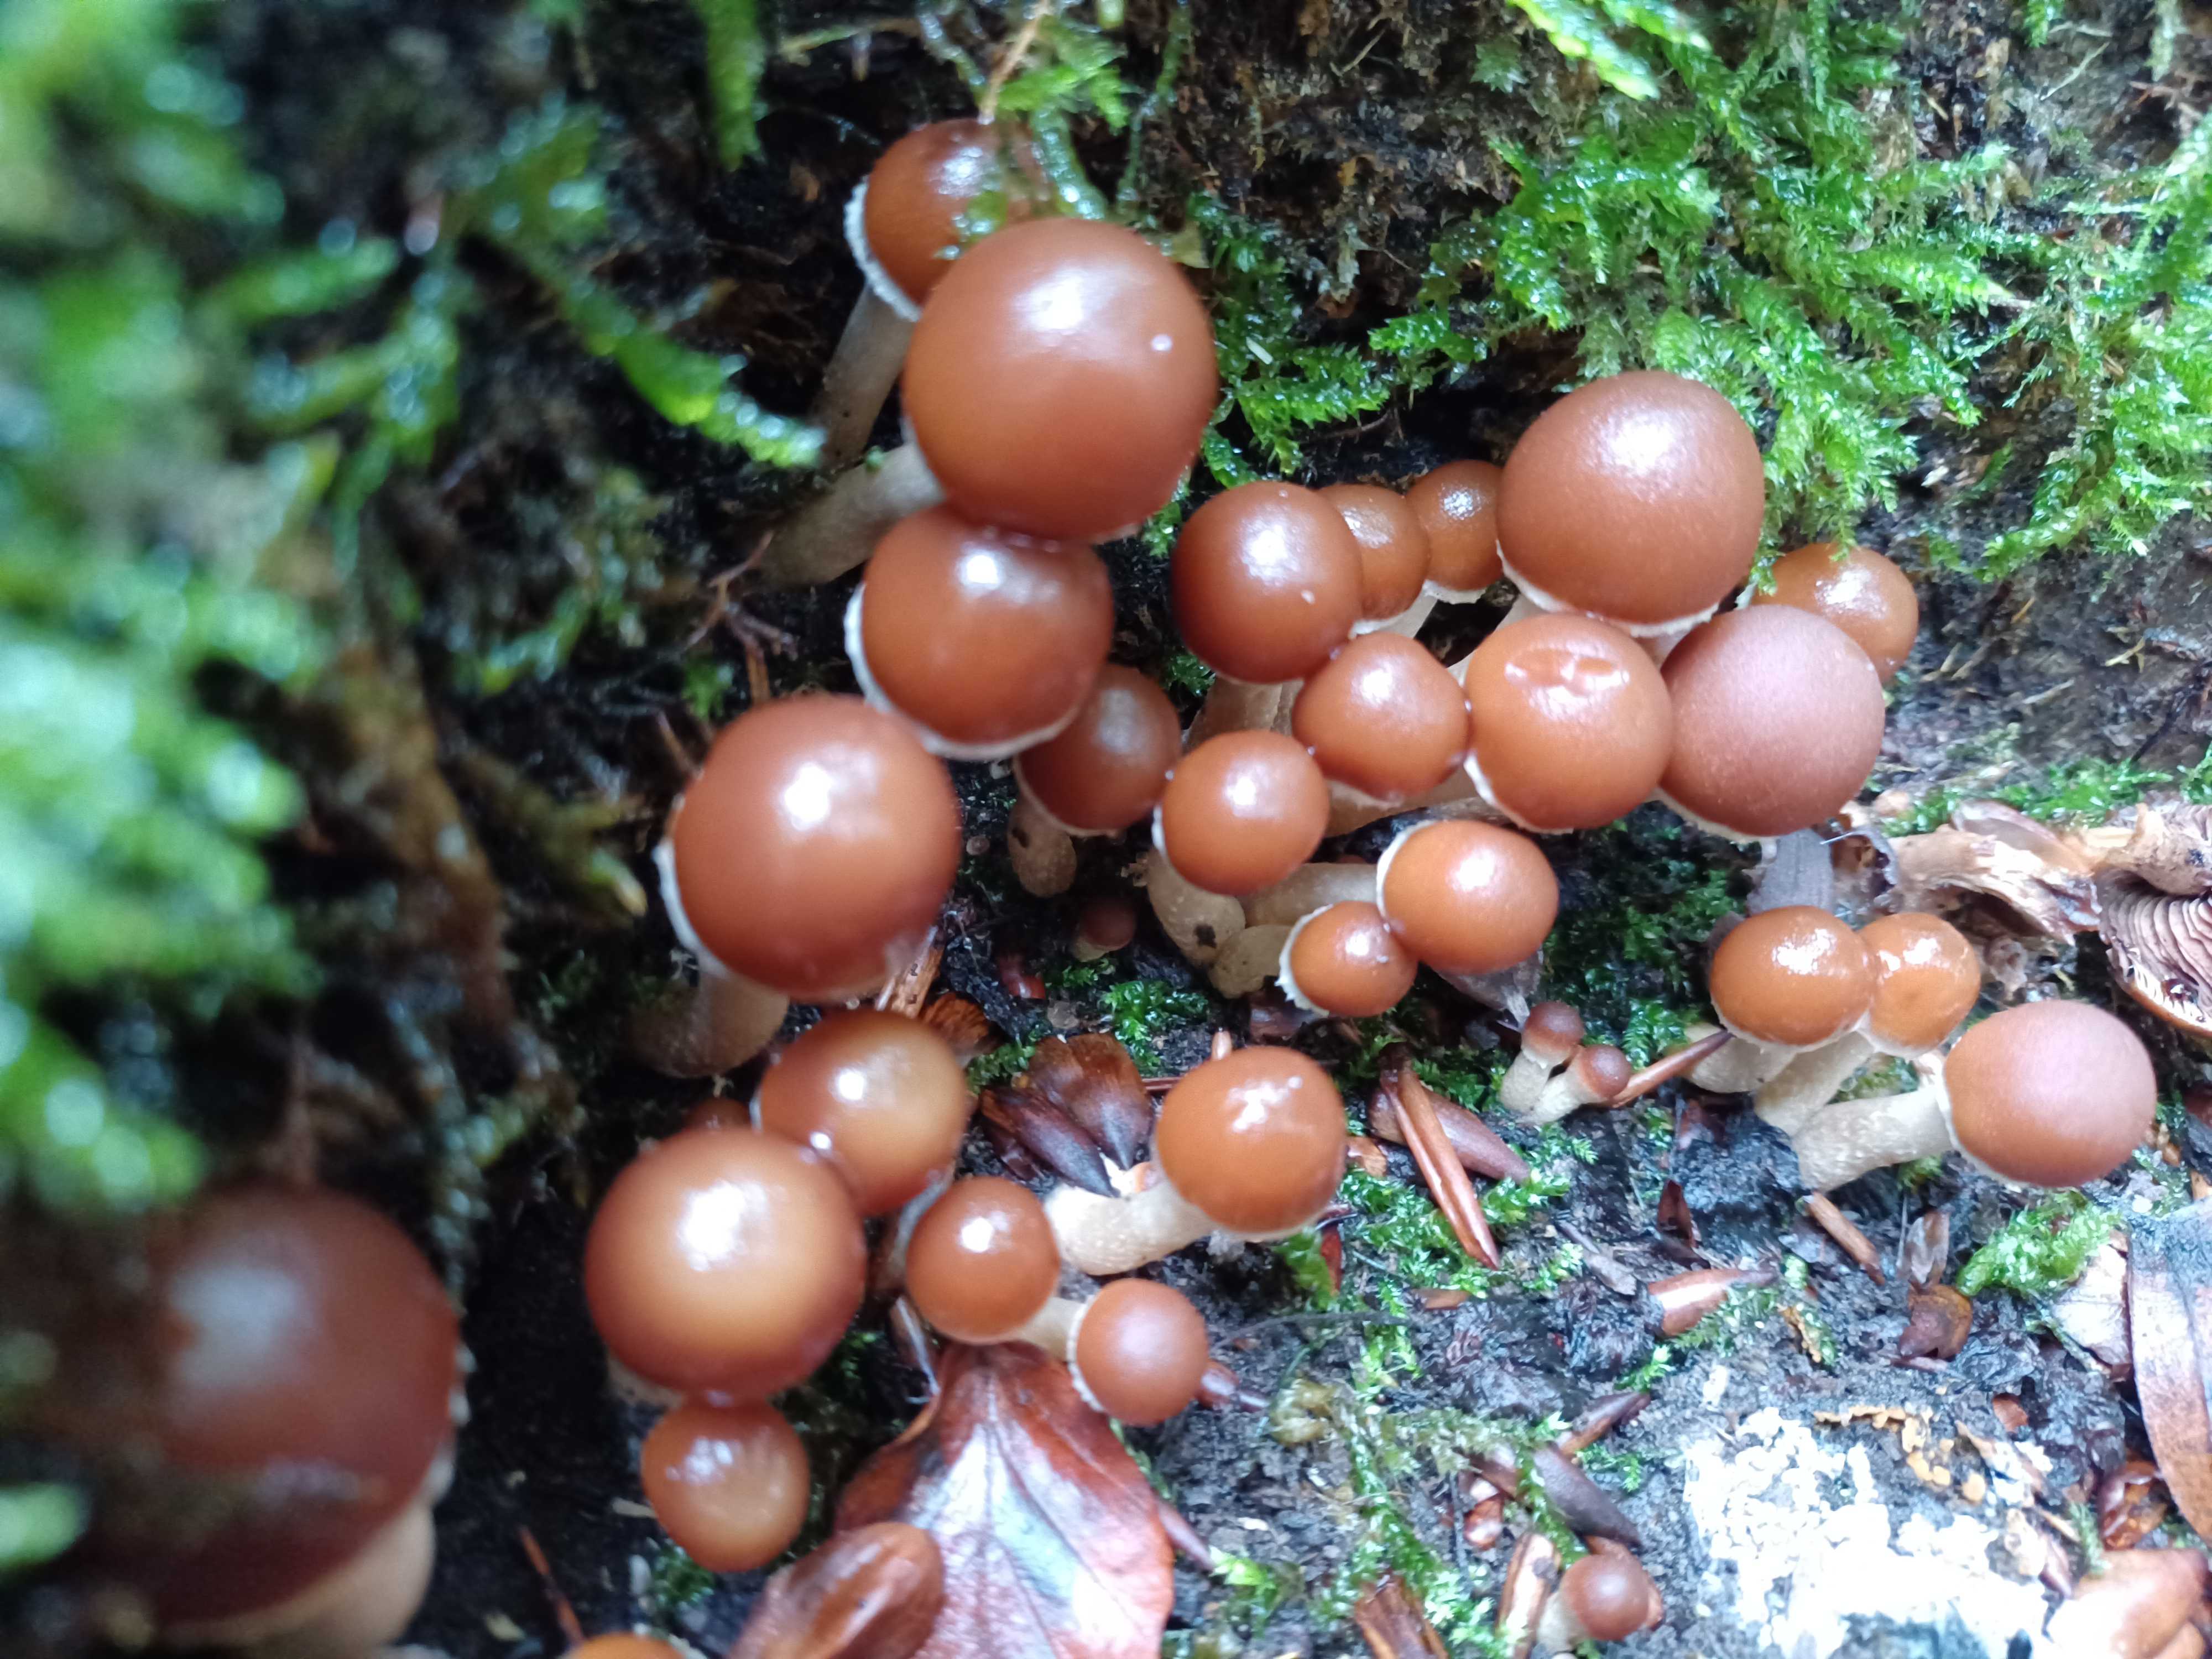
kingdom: Fungi
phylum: Basidiomycota
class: Agaricomycetes
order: Agaricales
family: Psathyrellaceae
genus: Psathyrella
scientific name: Psathyrella piluliformis
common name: lysstokket mørkhat
